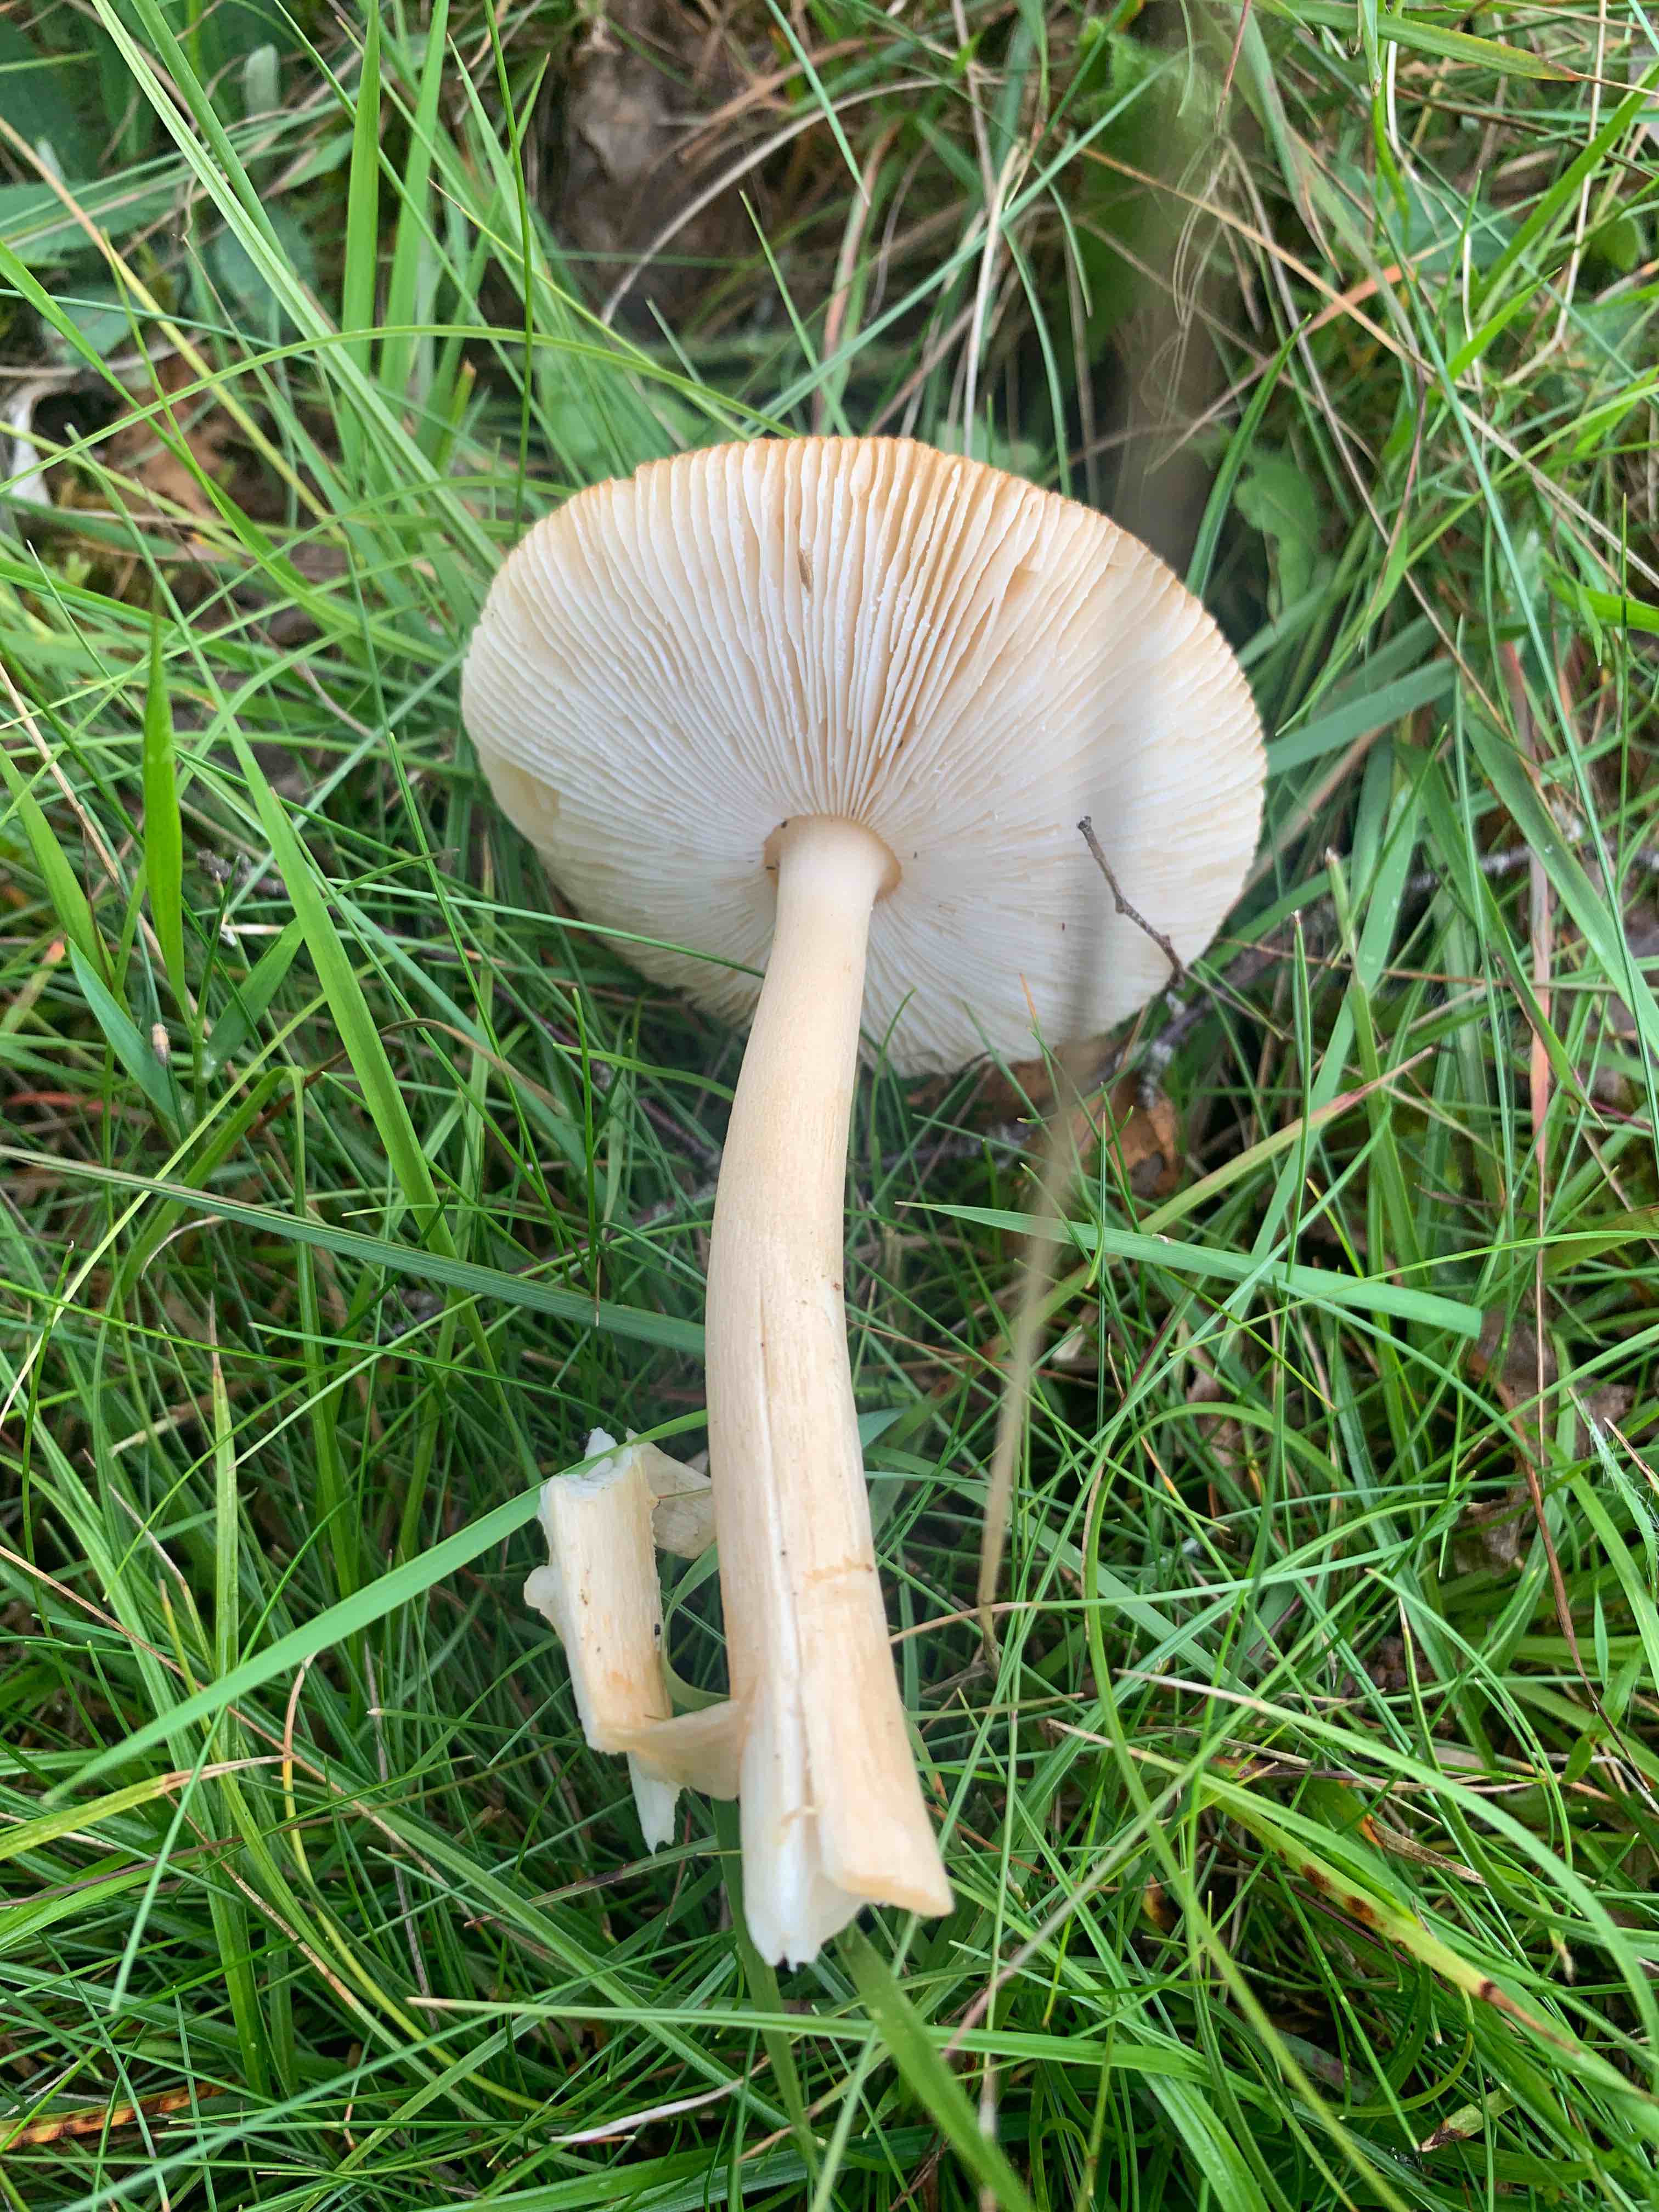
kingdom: Fungi
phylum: Basidiomycota
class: Agaricomycetes
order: Agaricales
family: Amanitaceae
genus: Amanita
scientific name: Amanita fulva
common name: brun kam-fluesvamp
